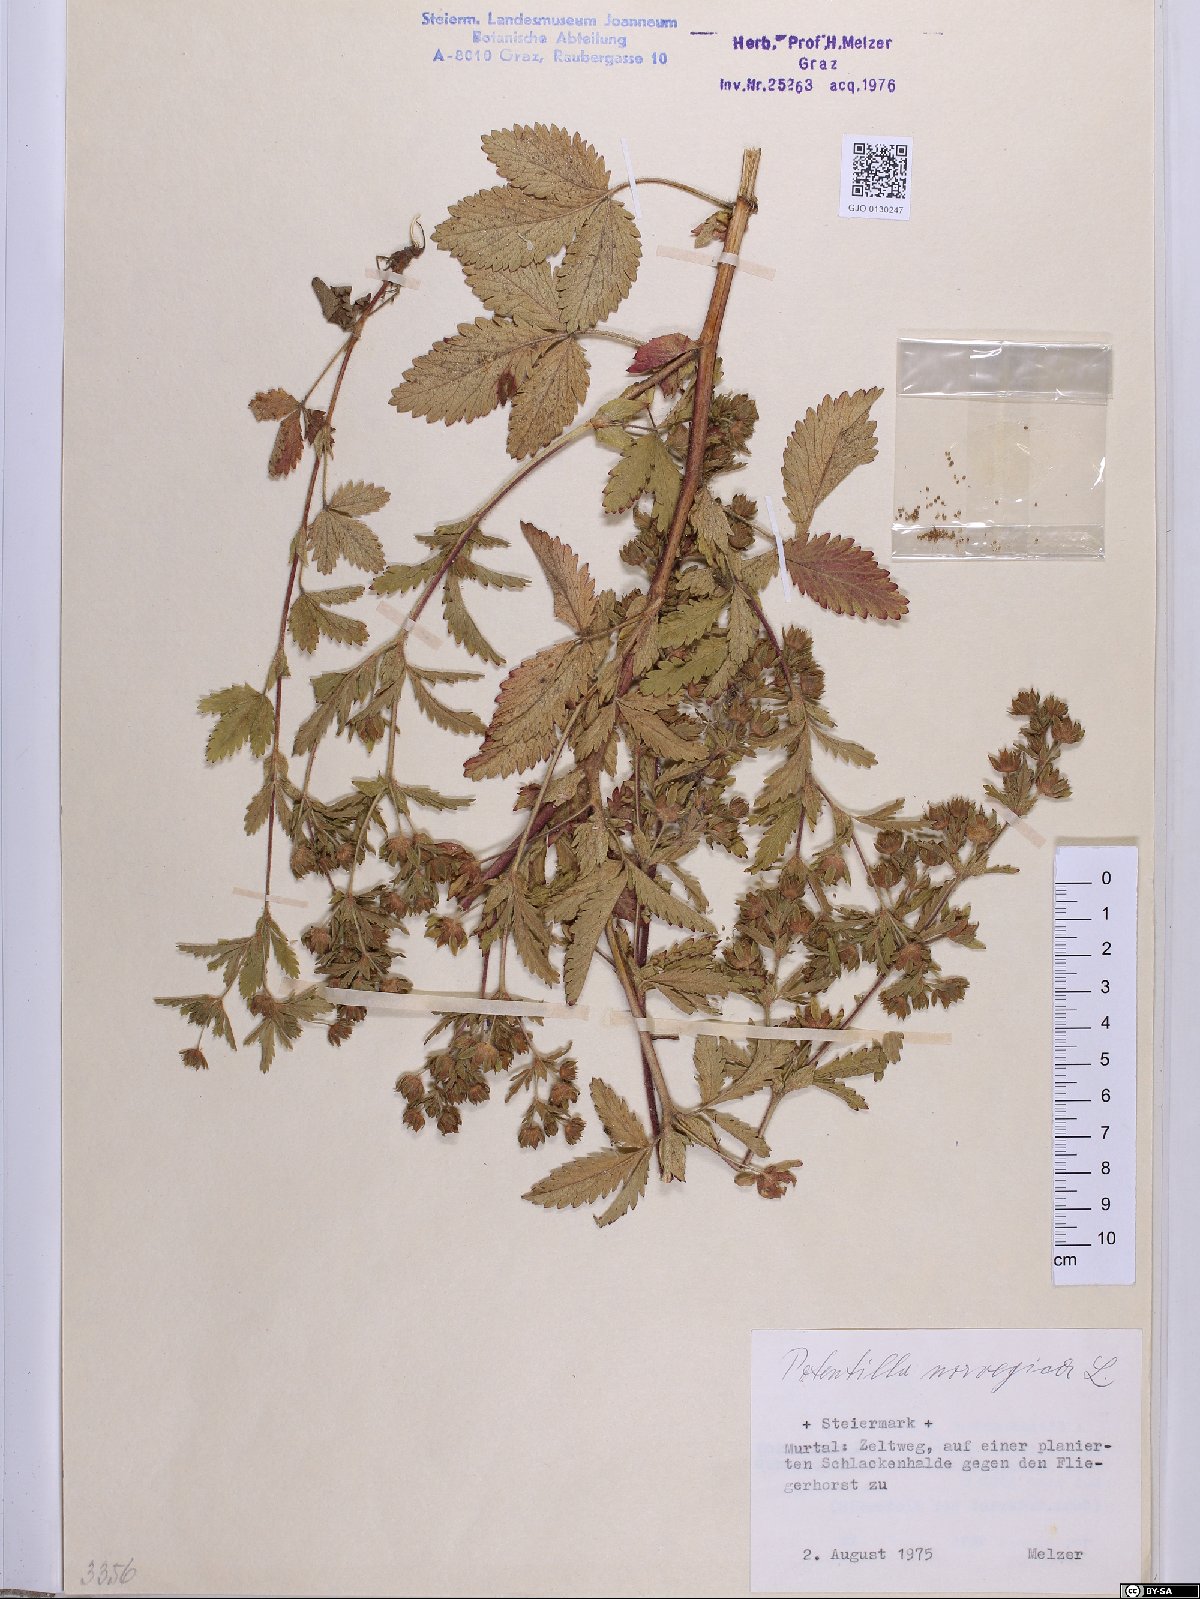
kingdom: Plantae
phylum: Tracheophyta
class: Magnoliopsida
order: Rosales
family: Rosaceae
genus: Potentilla
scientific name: Potentilla norvegica
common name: Ternate-leaved cinquefoil
